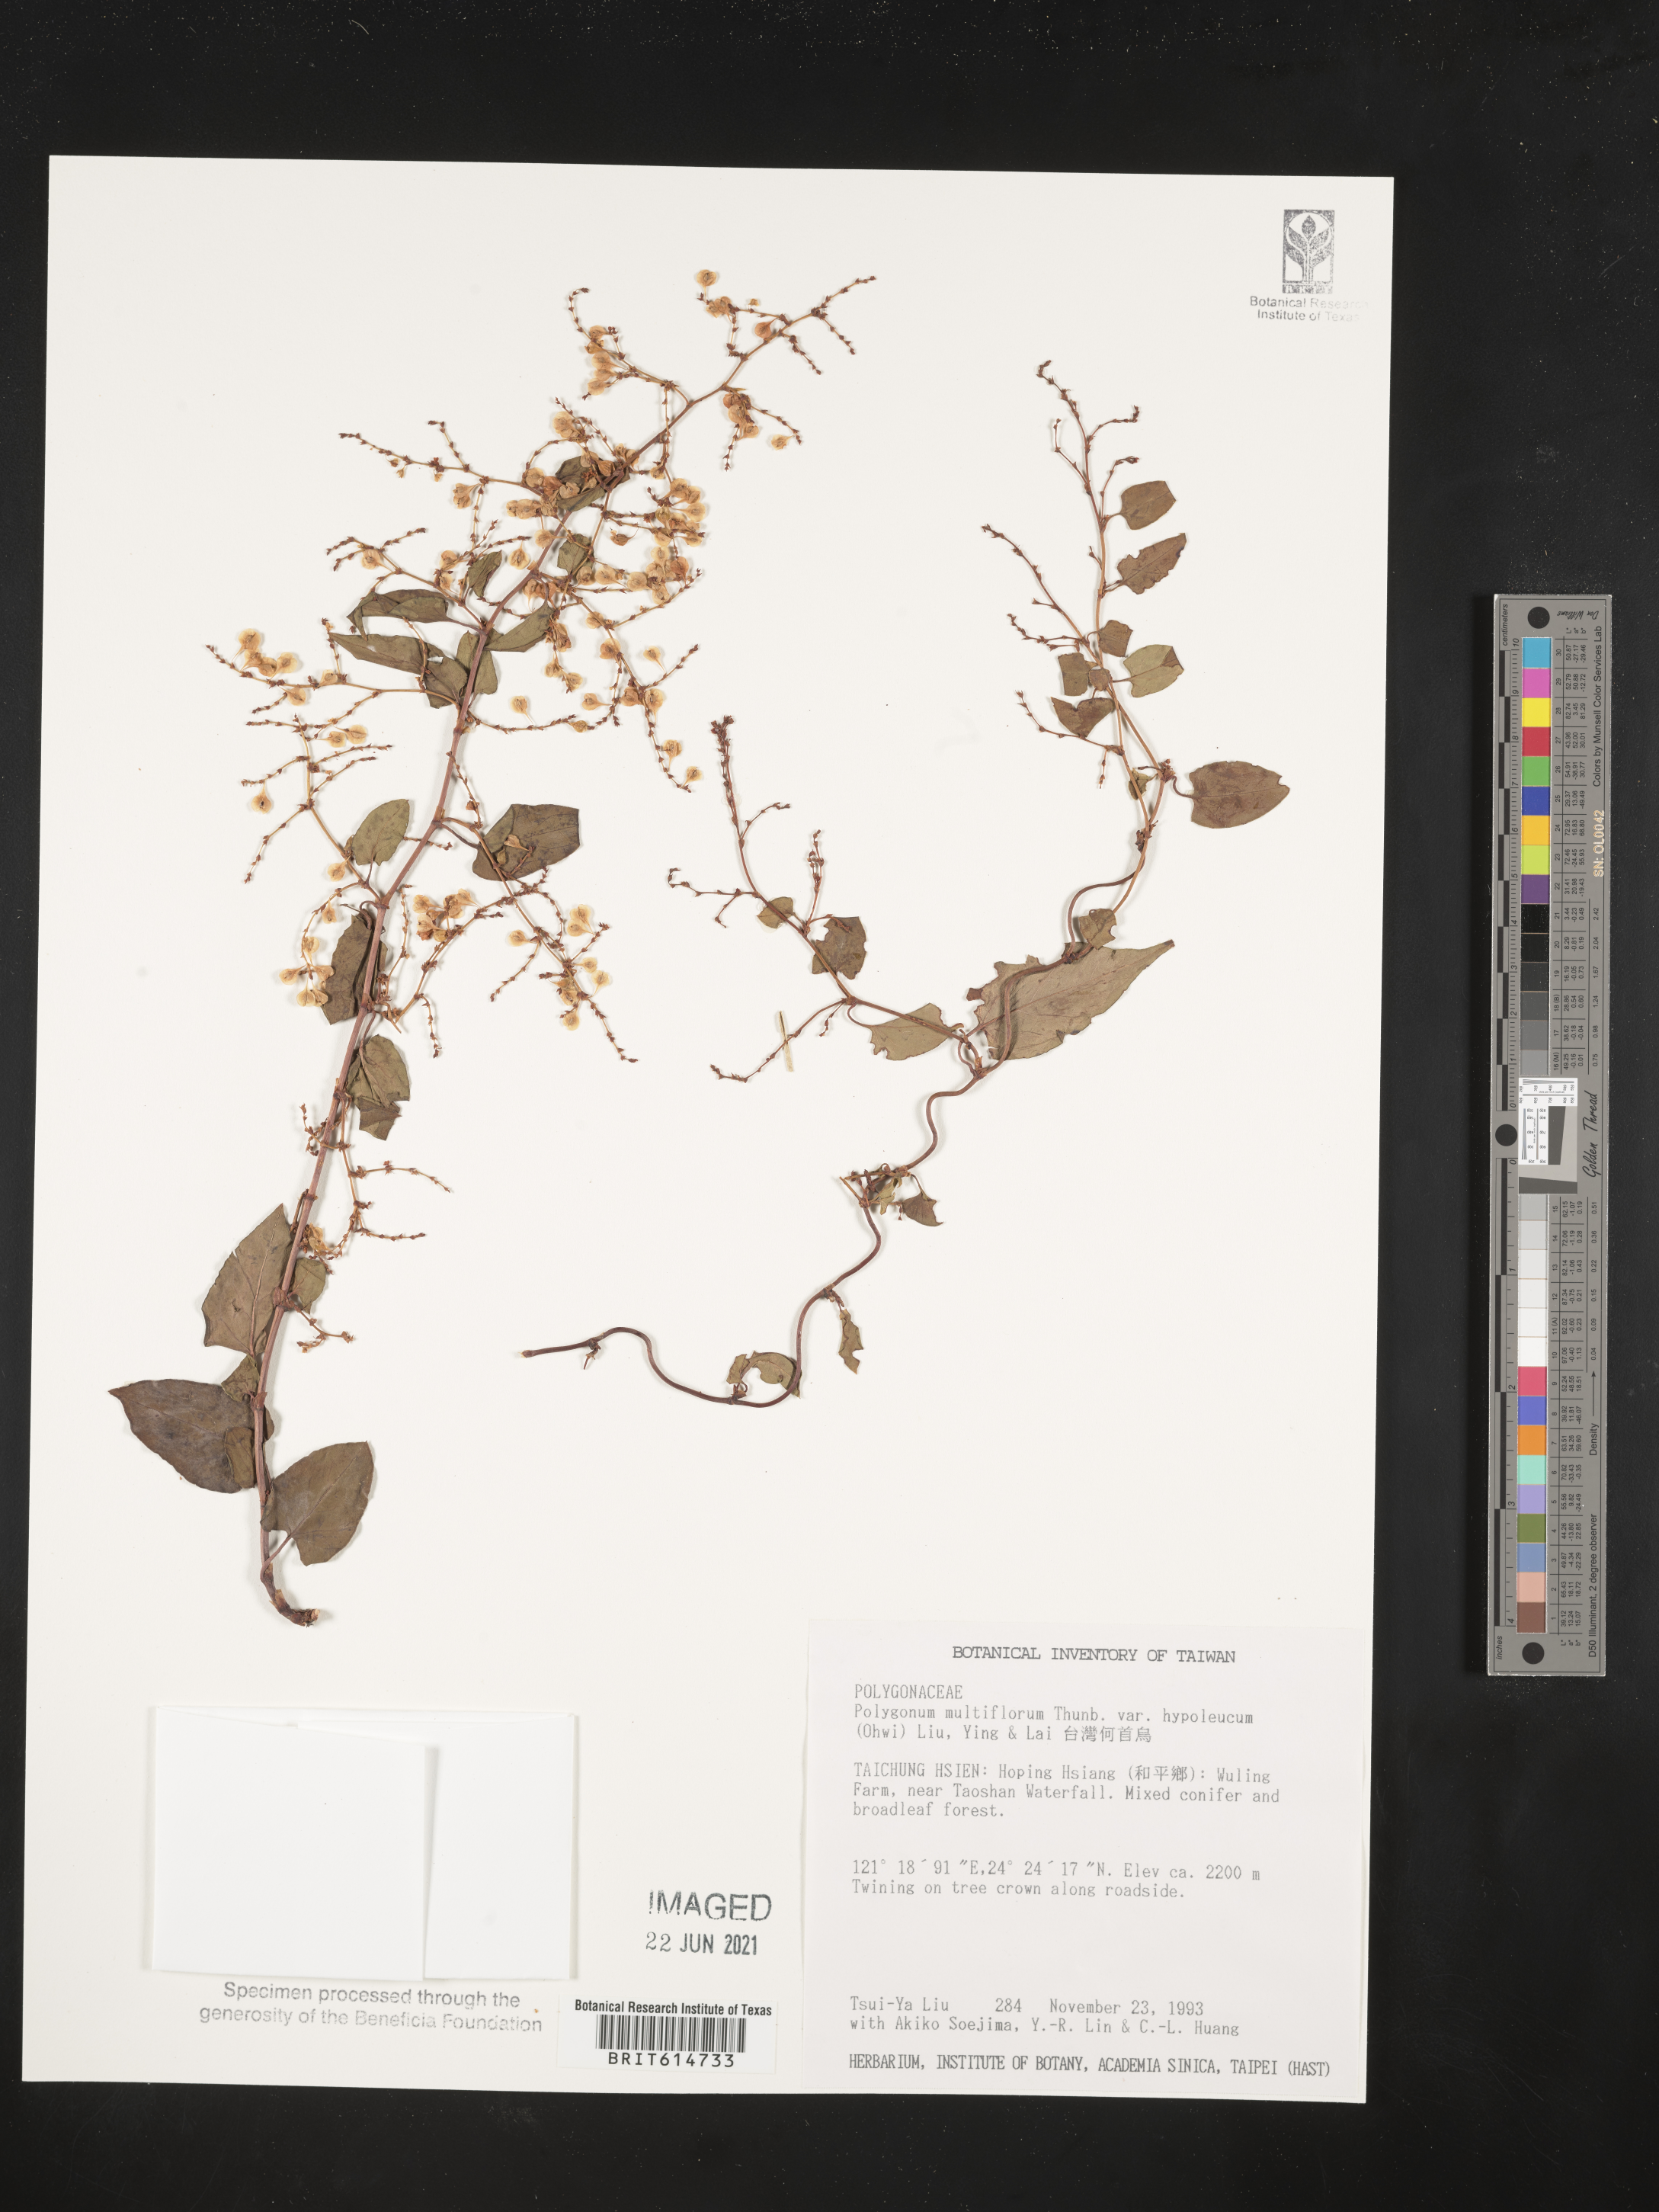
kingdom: Plantae
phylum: Tracheophyta
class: Magnoliopsida
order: Caryophyllales
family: Polygonaceae
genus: Reynoutria
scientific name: Reynoutria multiflora
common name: Chinese fleeceflower
